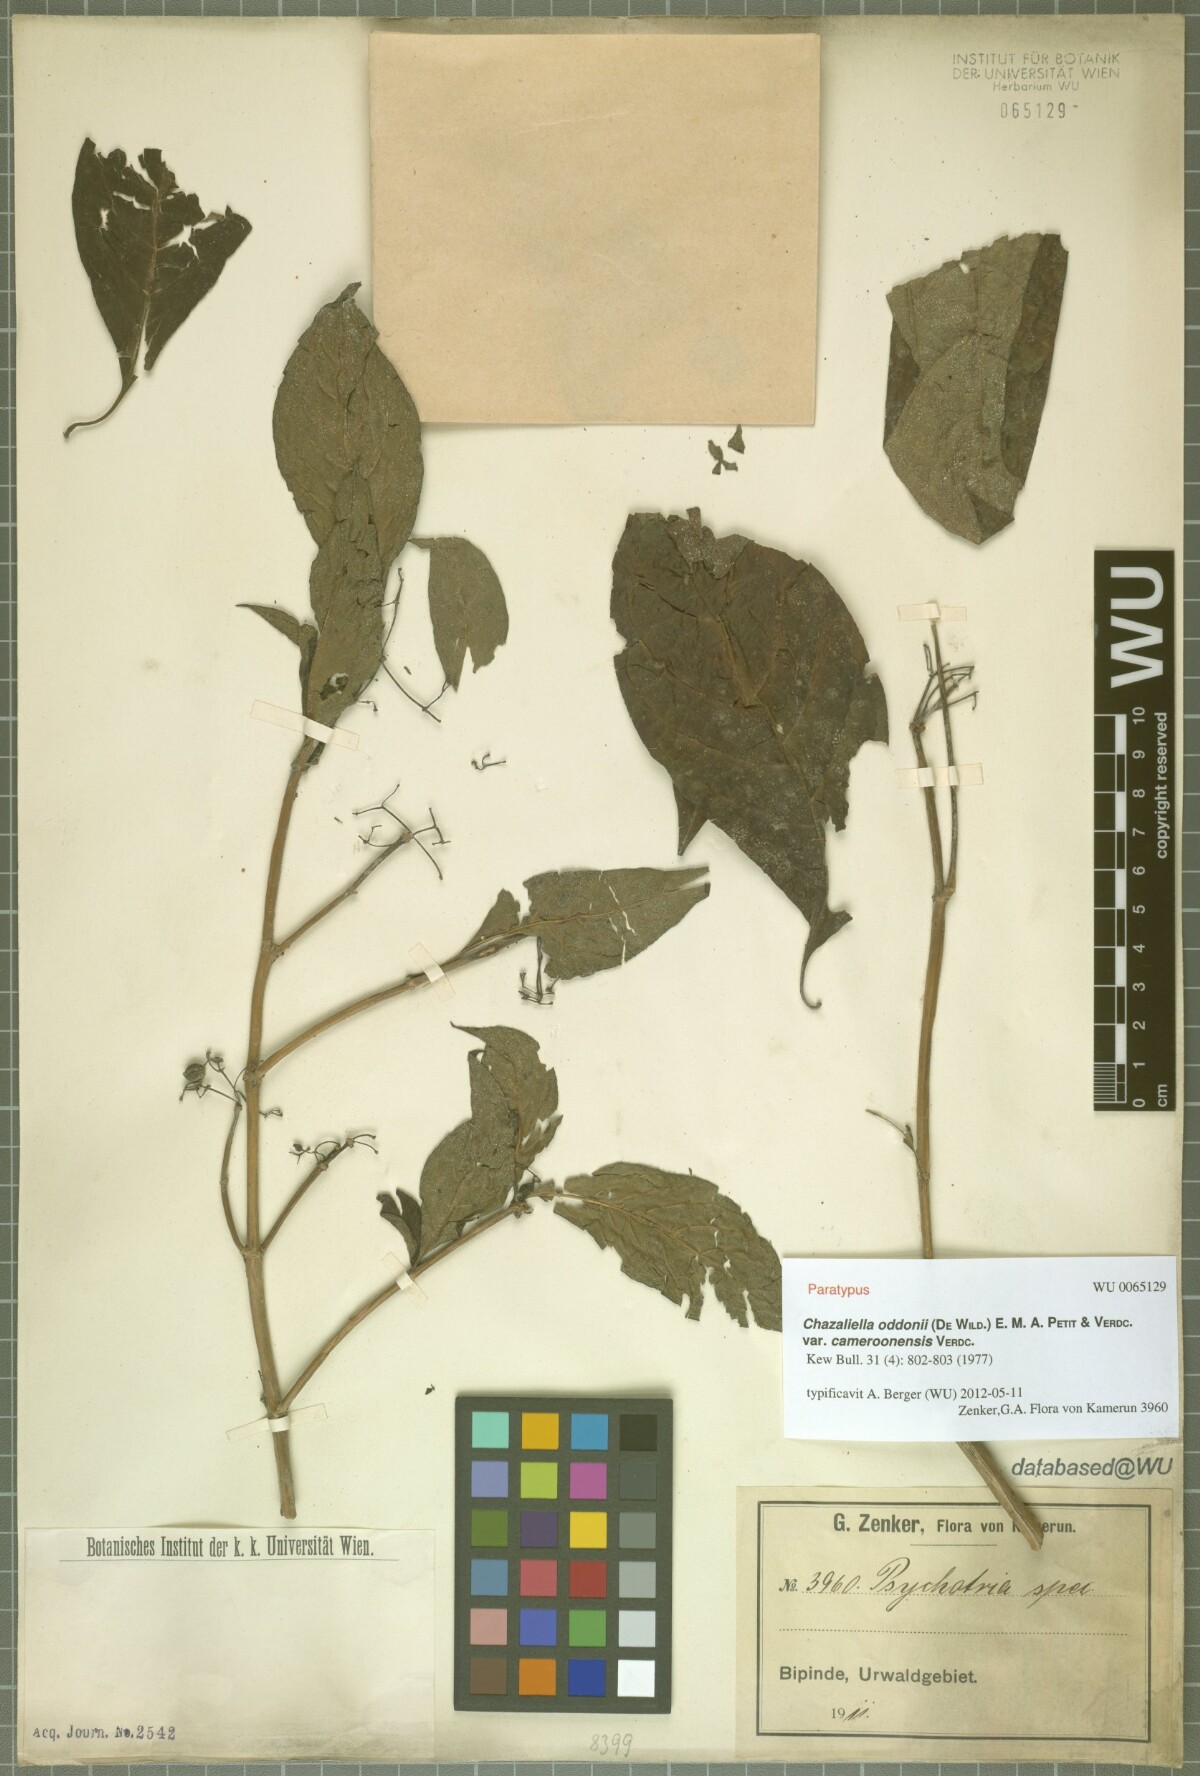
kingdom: Plantae
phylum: Tracheophyta
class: Magnoliopsida
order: Gentianales
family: Rubiaceae
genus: Eumachia
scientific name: Eumachia oddonii
